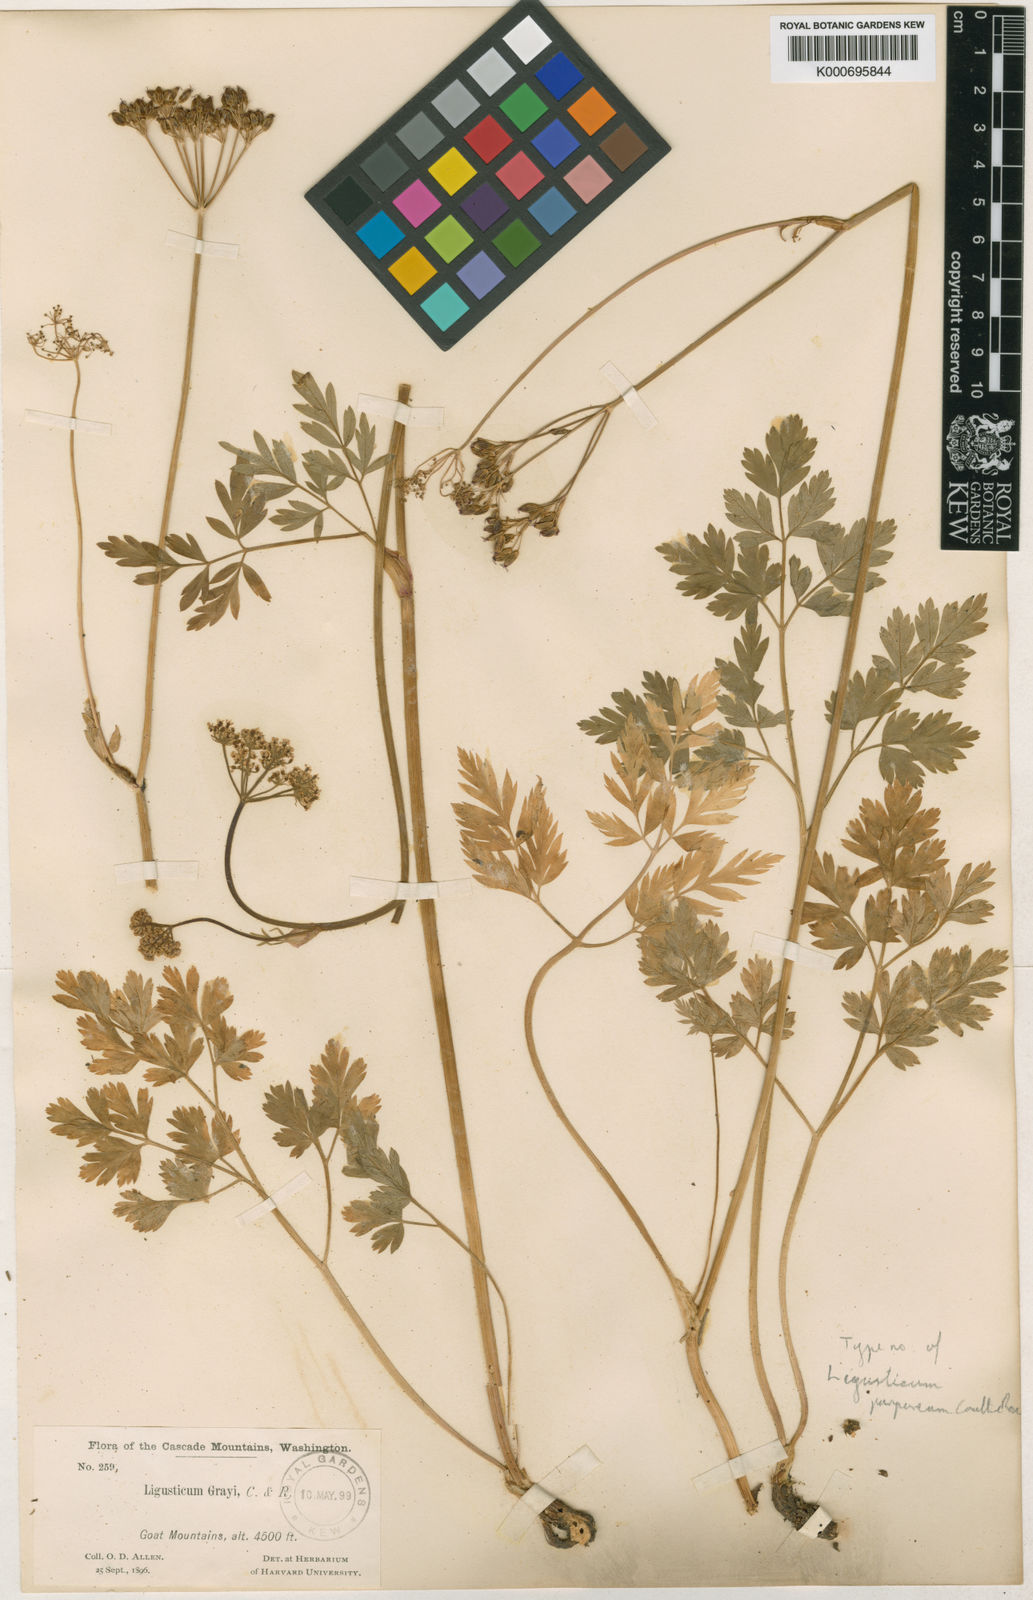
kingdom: Plantae
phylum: Tracheophyta
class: Magnoliopsida
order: Apiales
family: Apiaceae
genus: Ligusticum
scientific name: Ligusticum grayi
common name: Gray's licorice-root
